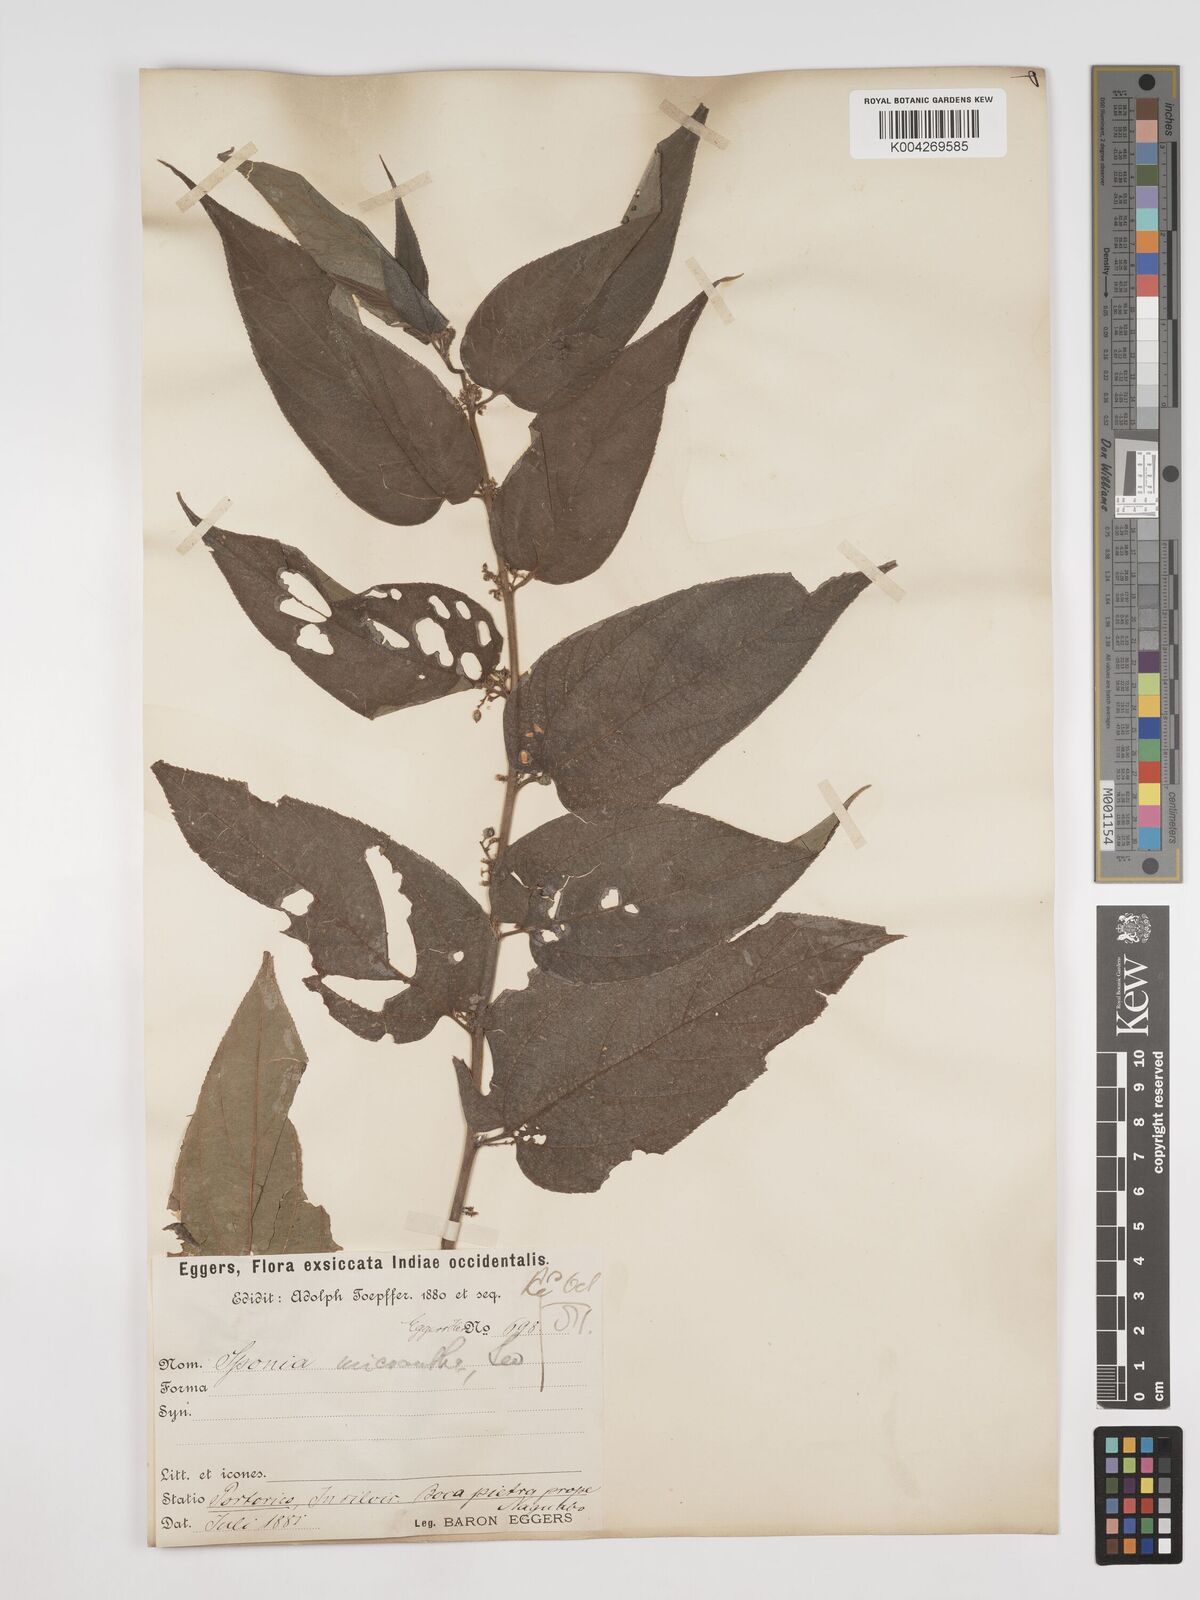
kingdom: Plantae
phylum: Tracheophyta
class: Magnoliopsida
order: Rosales
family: Cannabaceae
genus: Trema
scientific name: Trema micranthum
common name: Jamaican nettletree
